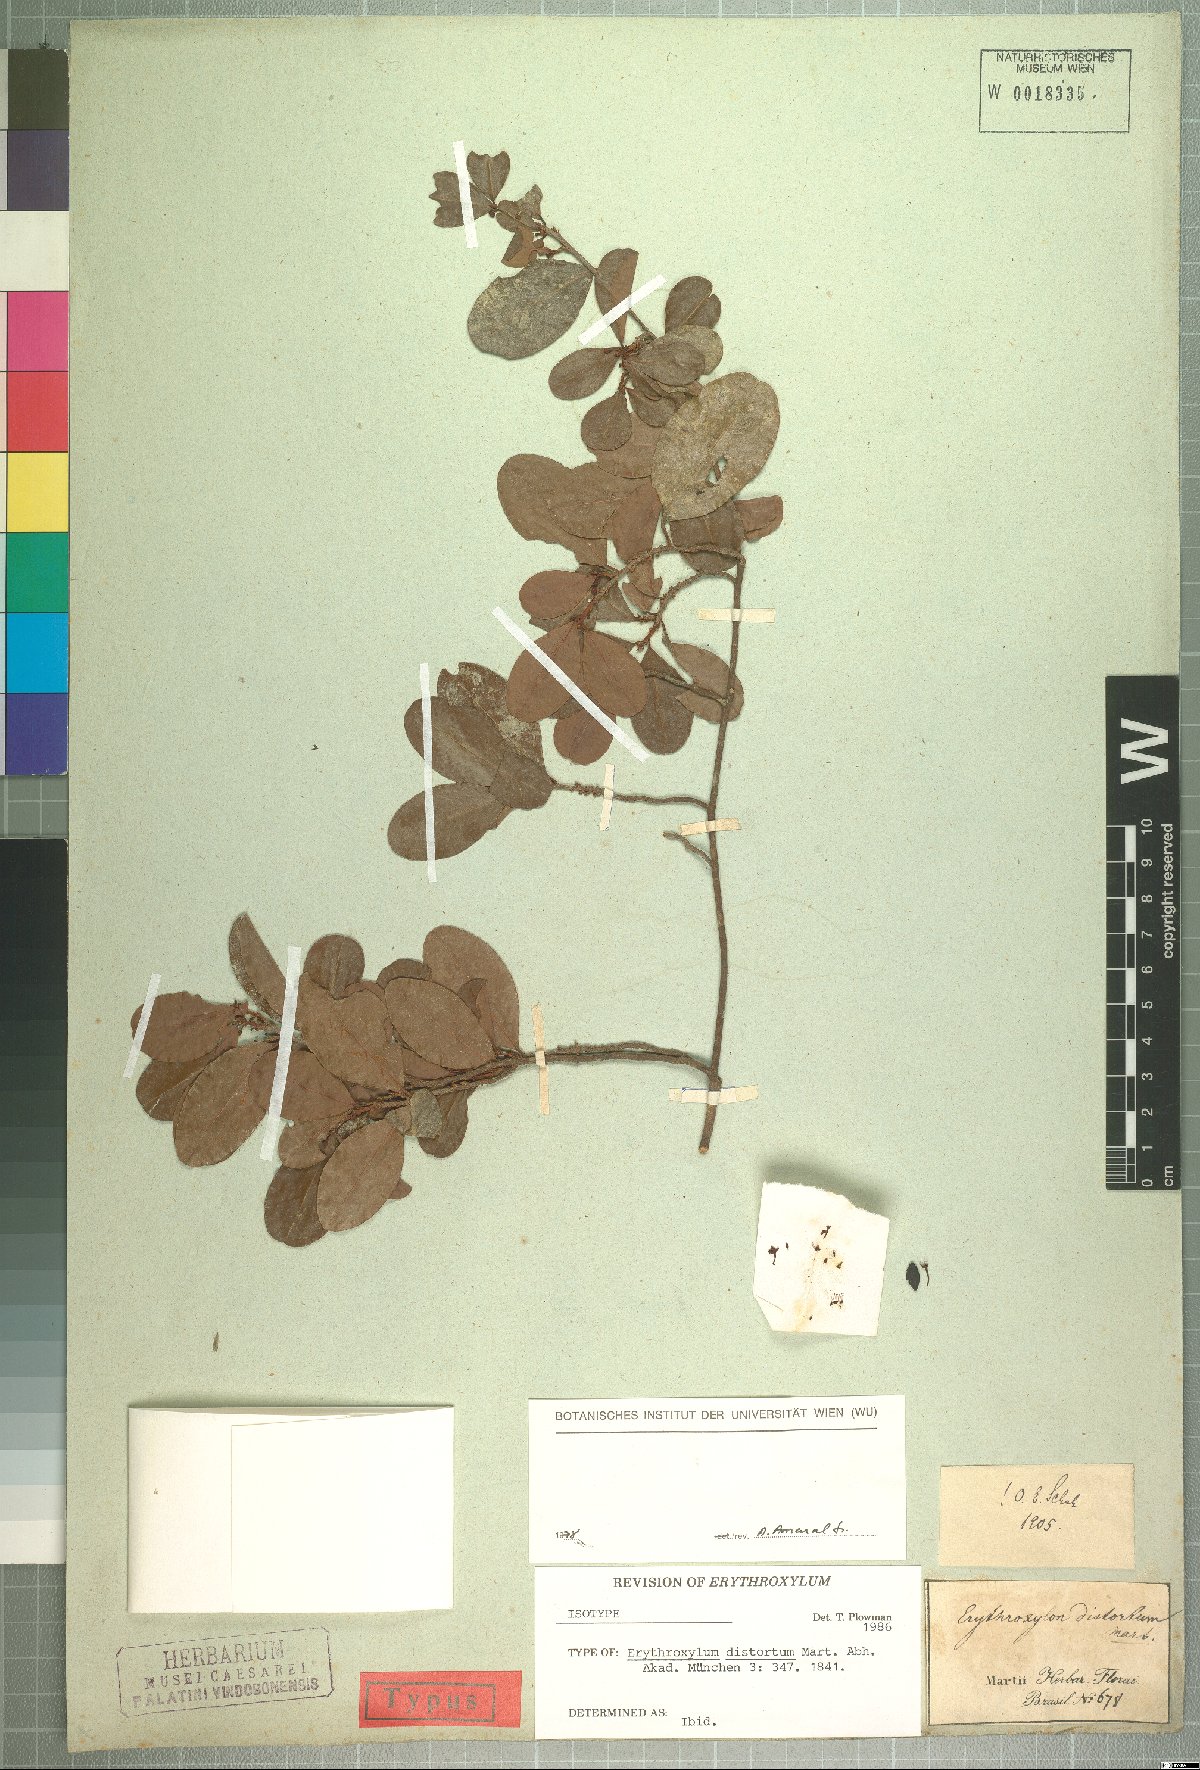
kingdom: Plantae
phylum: Tracheophyta
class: Magnoliopsida
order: Malpighiales
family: Erythroxylaceae
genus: Erythroxylum
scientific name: Erythroxylum distortum
